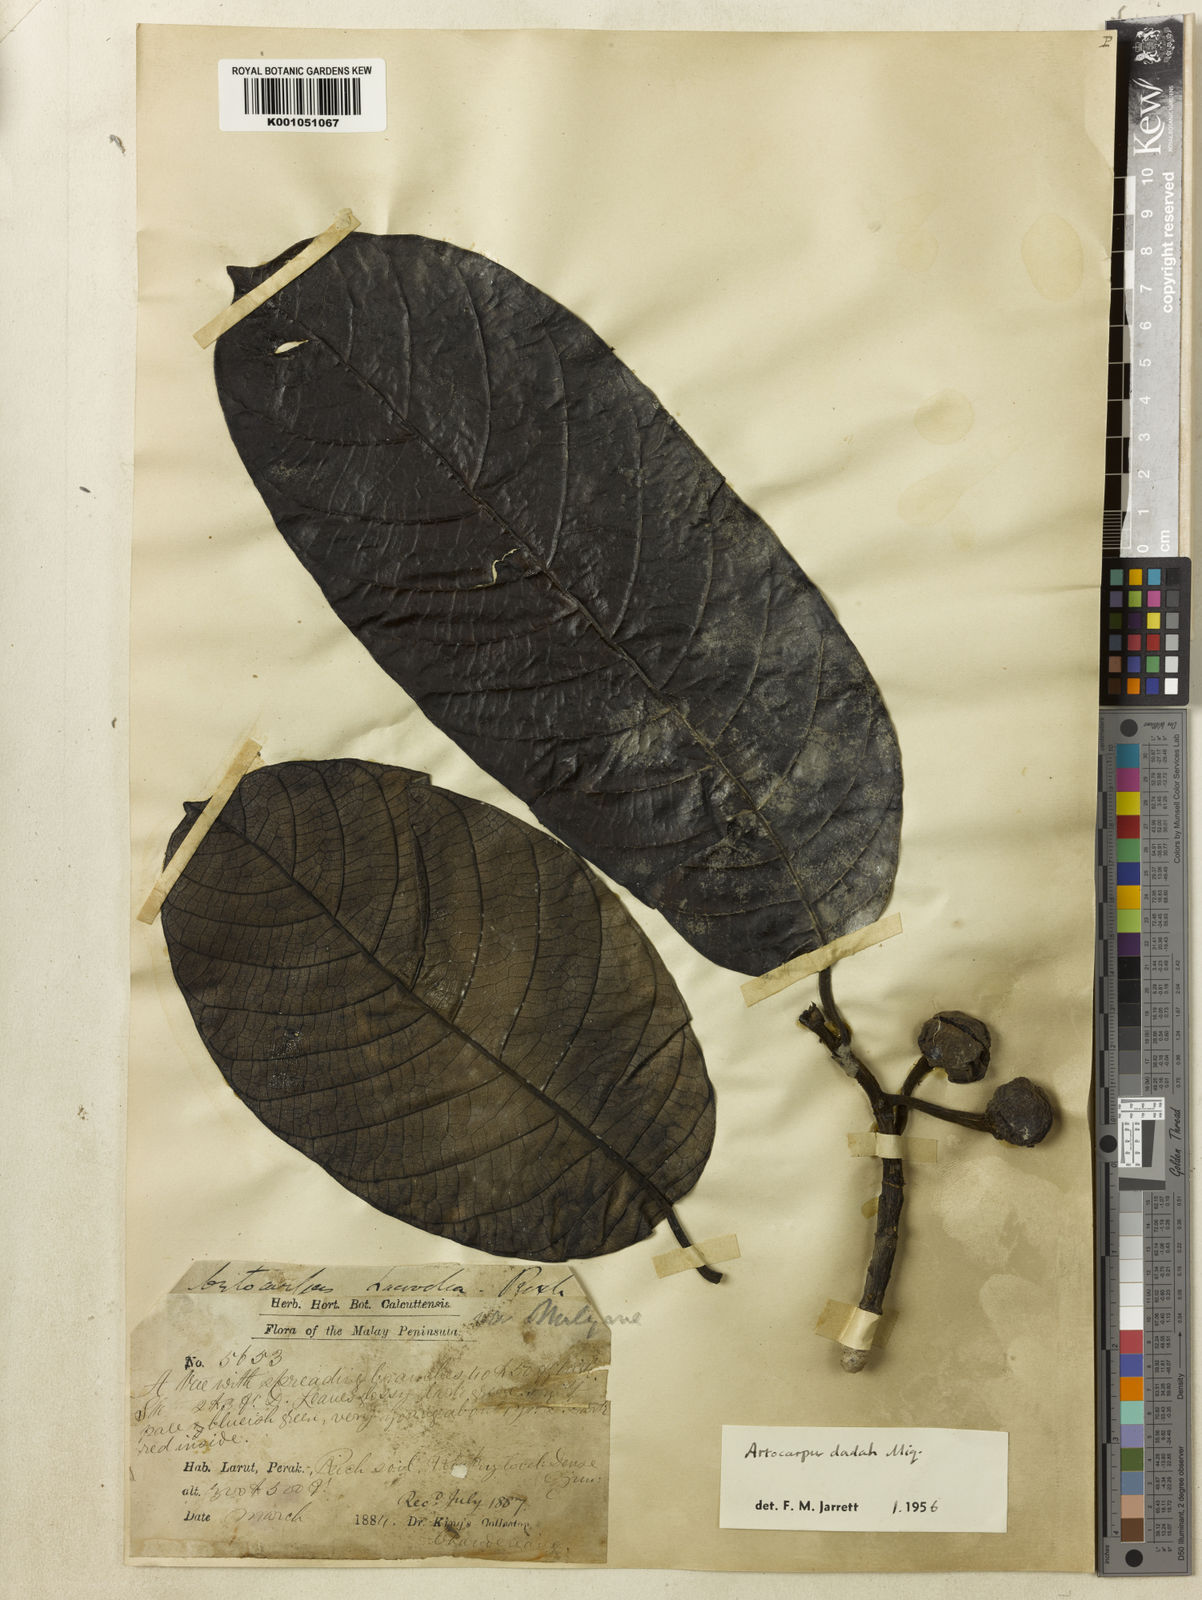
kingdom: Plantae
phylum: Tracheophyta
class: Magnoliopsida
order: Rosales
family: Moraceae
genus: Artocarpus
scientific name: Artocarpus lacucha
